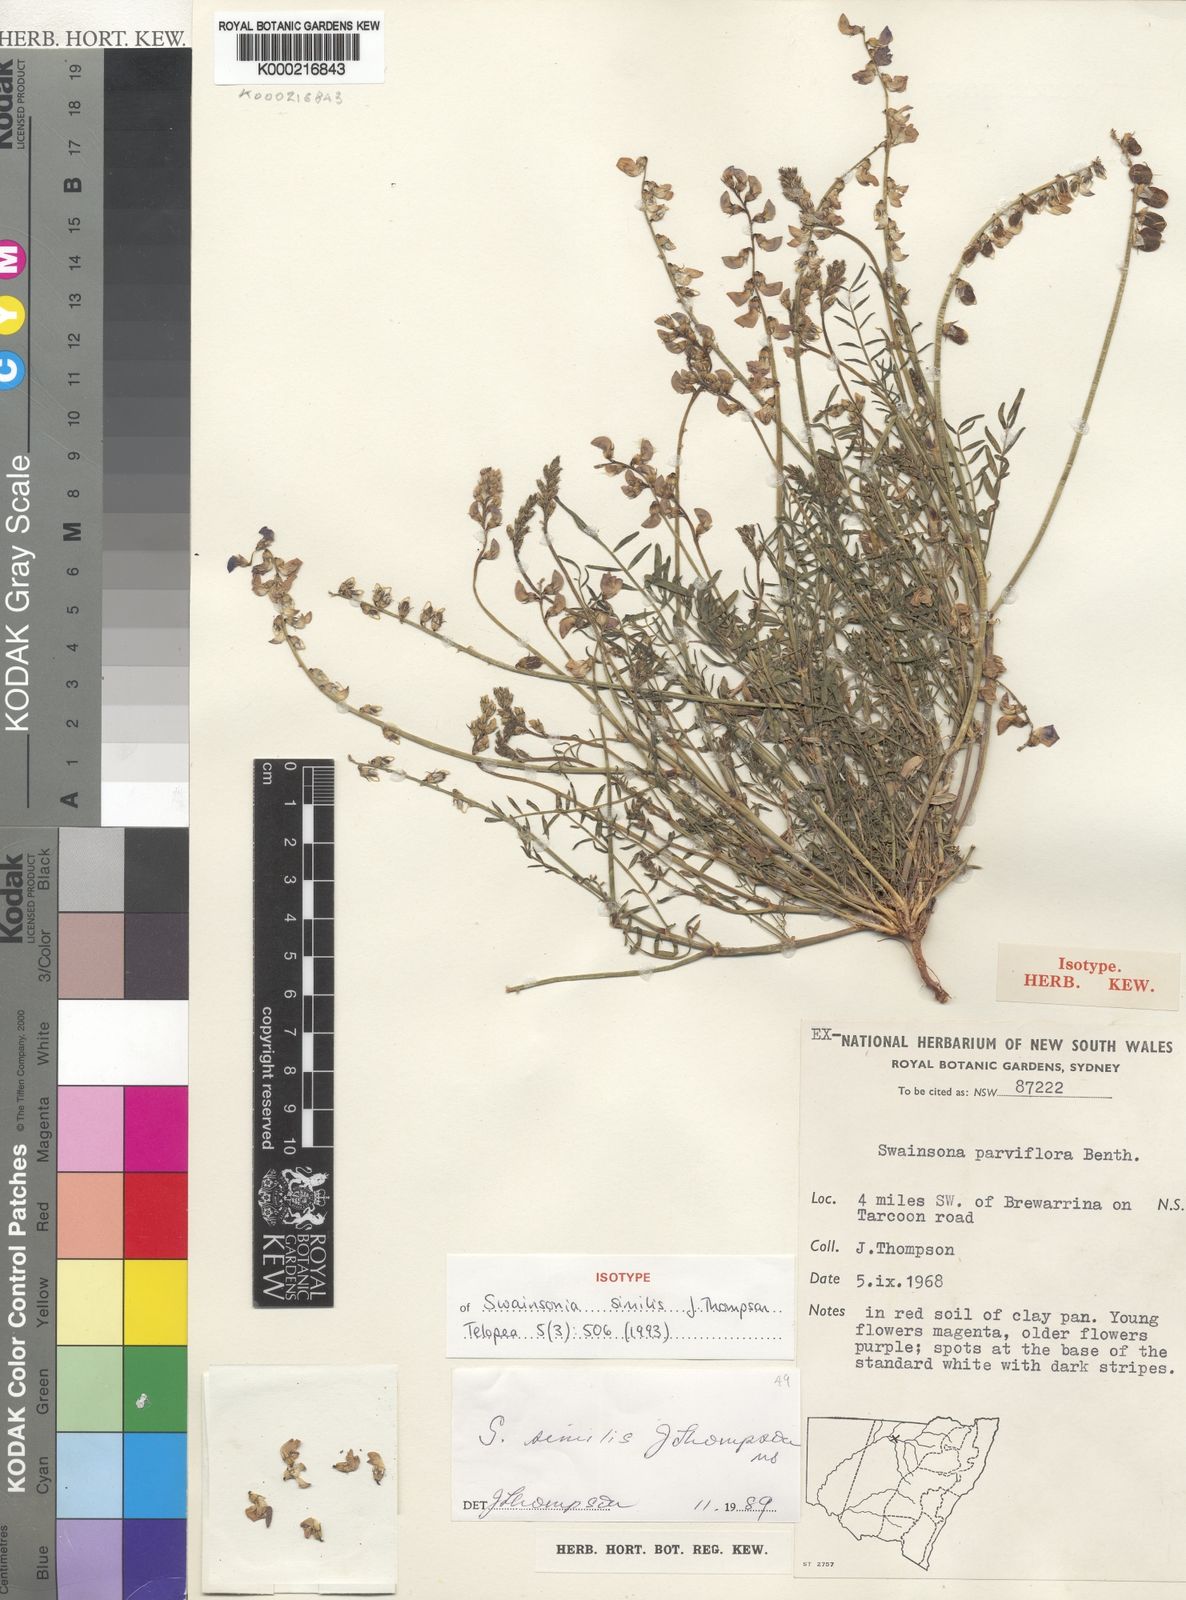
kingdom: Plantae
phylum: Tracheophyta
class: Magnoliopsida
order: Fabales
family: Fabaceae
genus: Swainsona
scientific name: Swainsona similis
